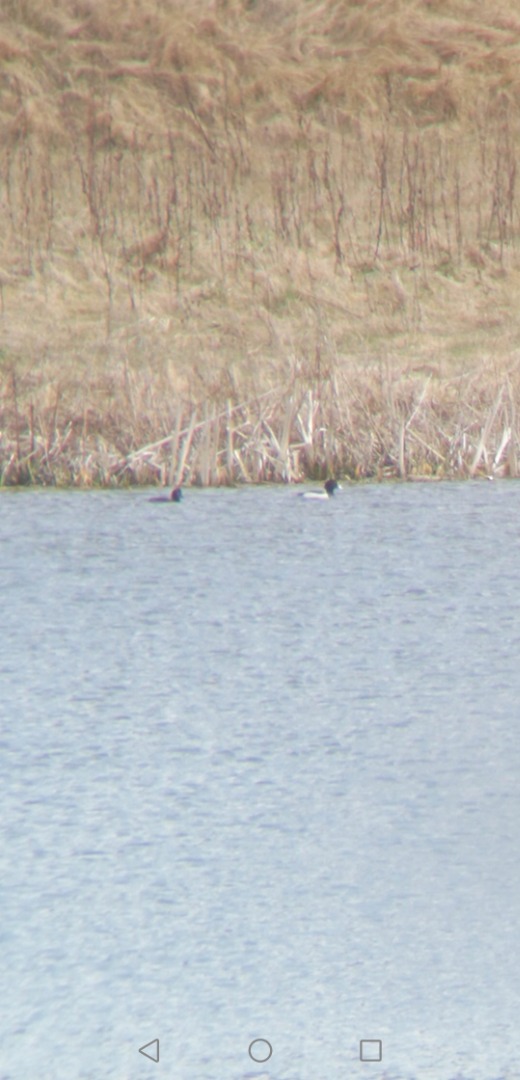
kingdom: Animalia
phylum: Chordata
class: Aves
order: Anseriformes
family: Anatidae
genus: Aythya
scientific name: Aythya fuligula
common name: Troldand
